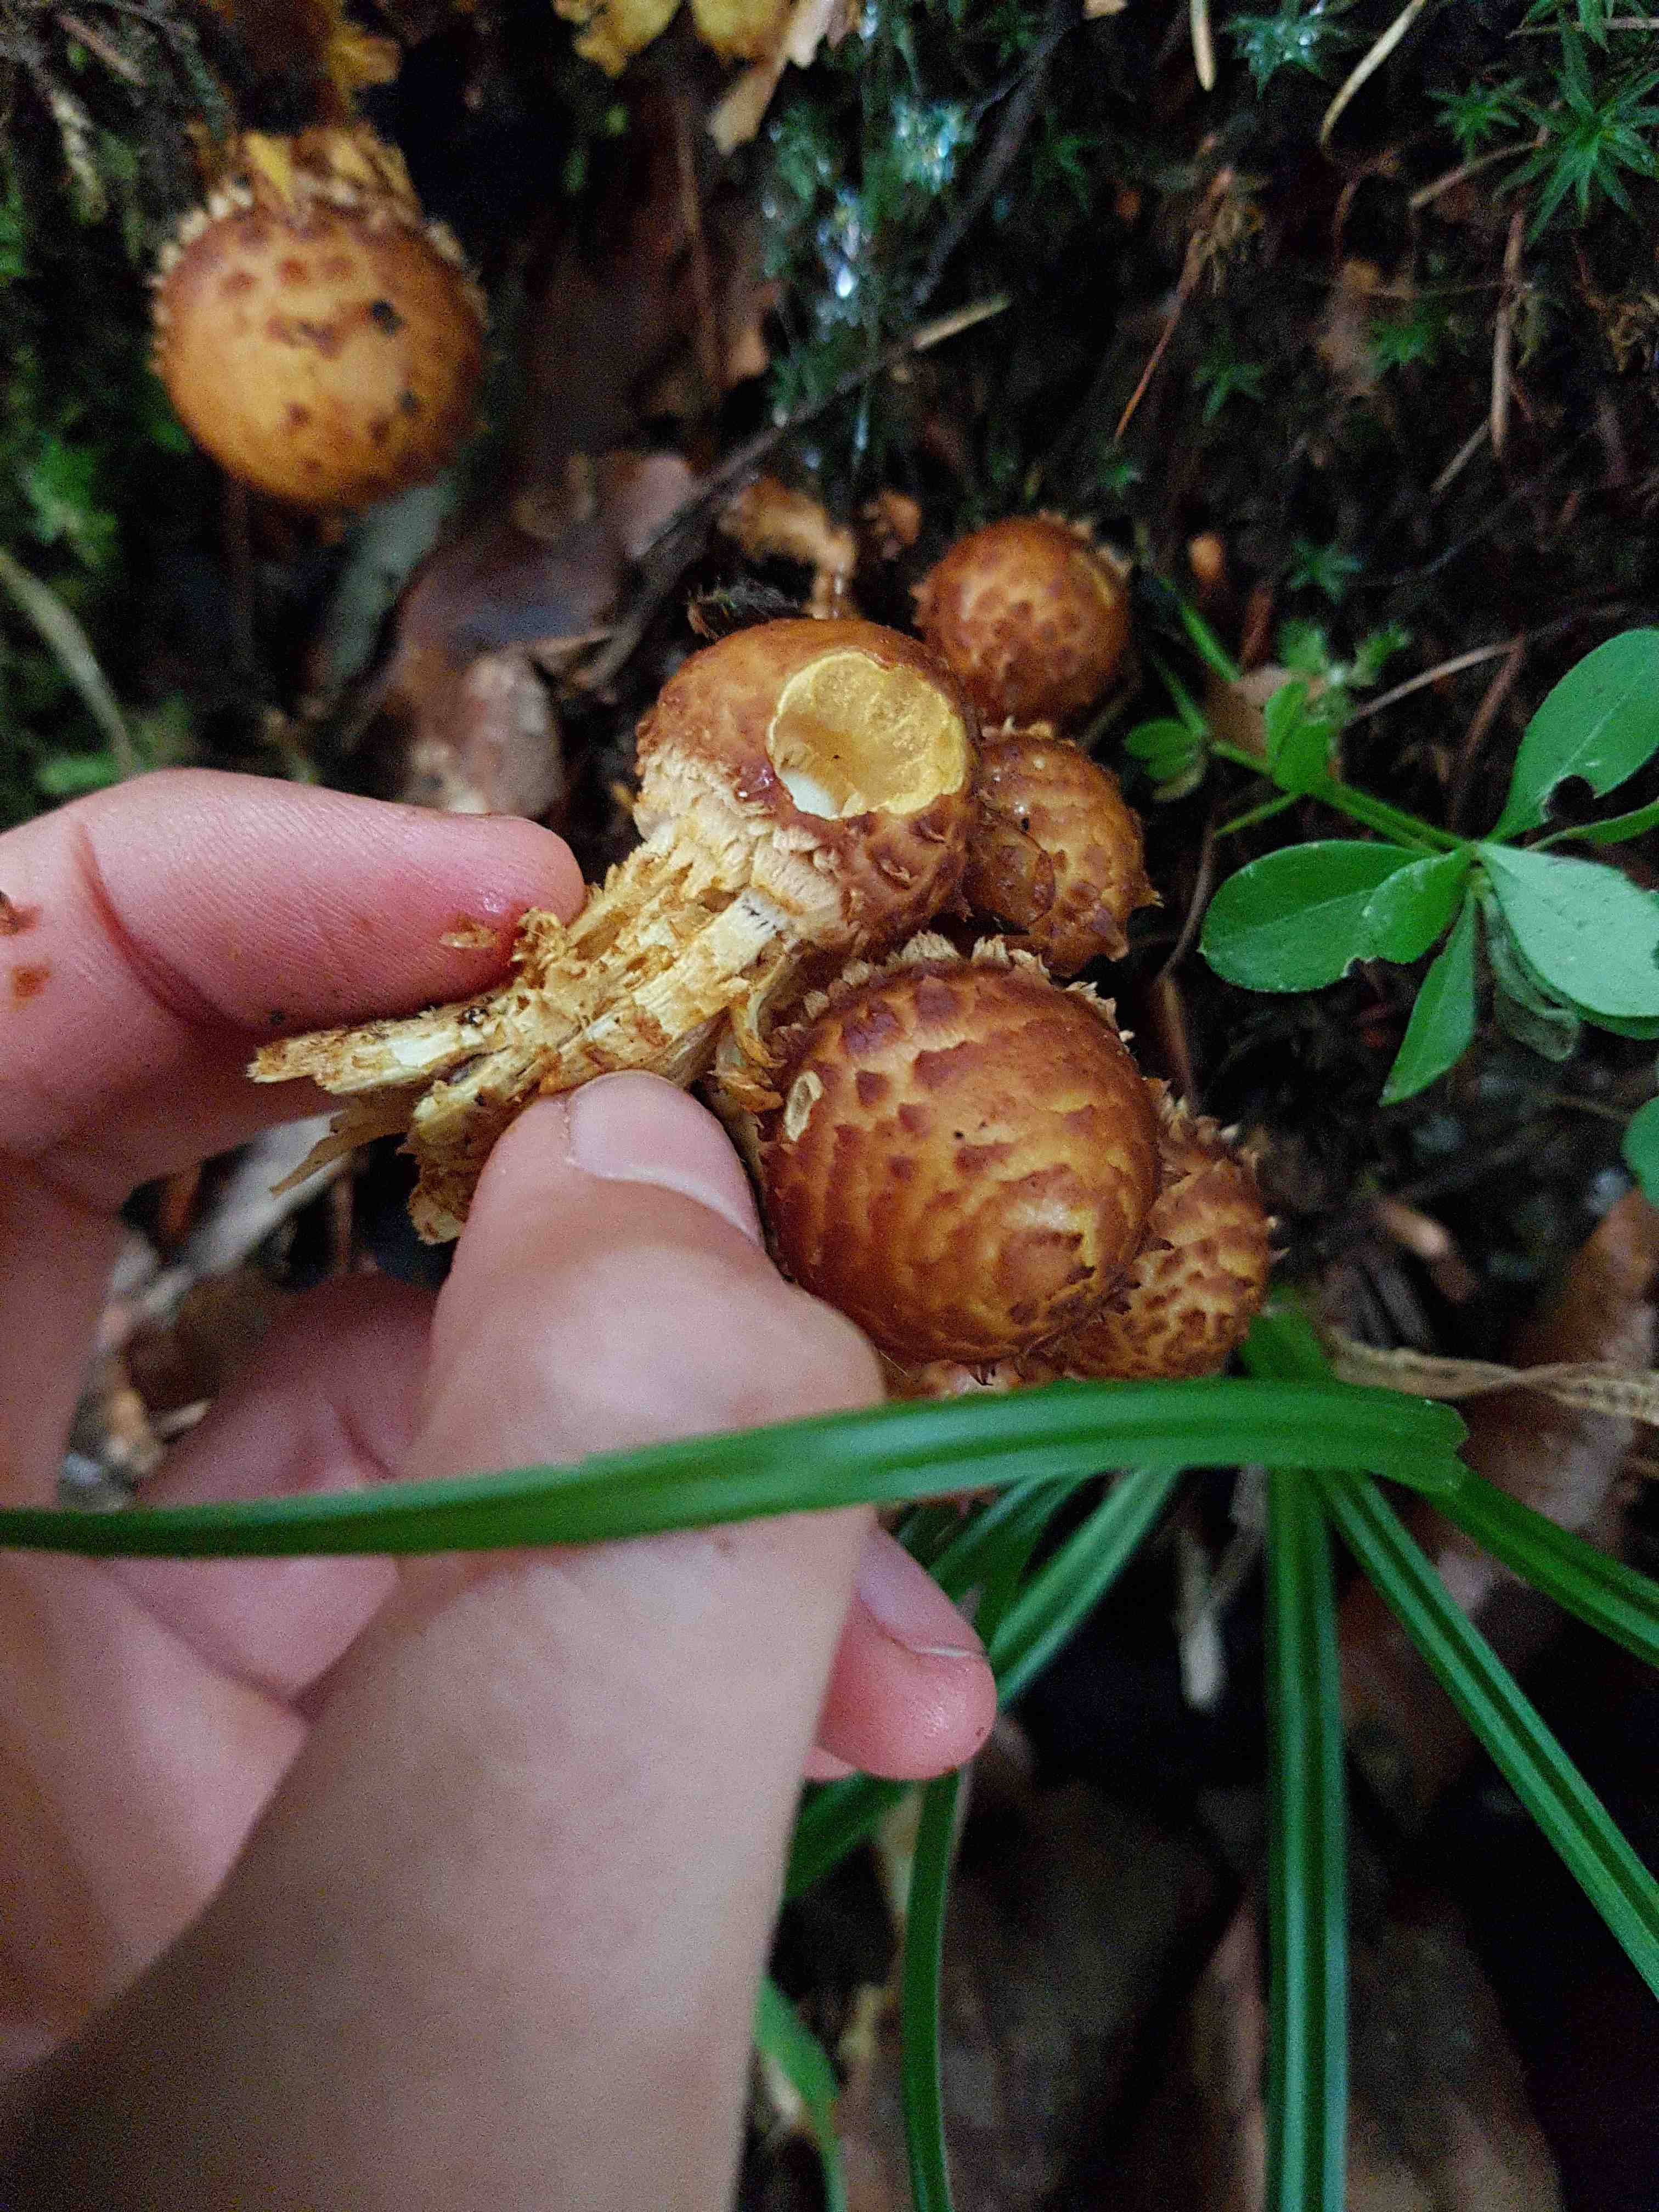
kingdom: Fungi
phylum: Basidiomycota
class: Agaricomycetes
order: Agaricales
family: Strophariaceae
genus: Pholiota
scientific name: Pholiota
